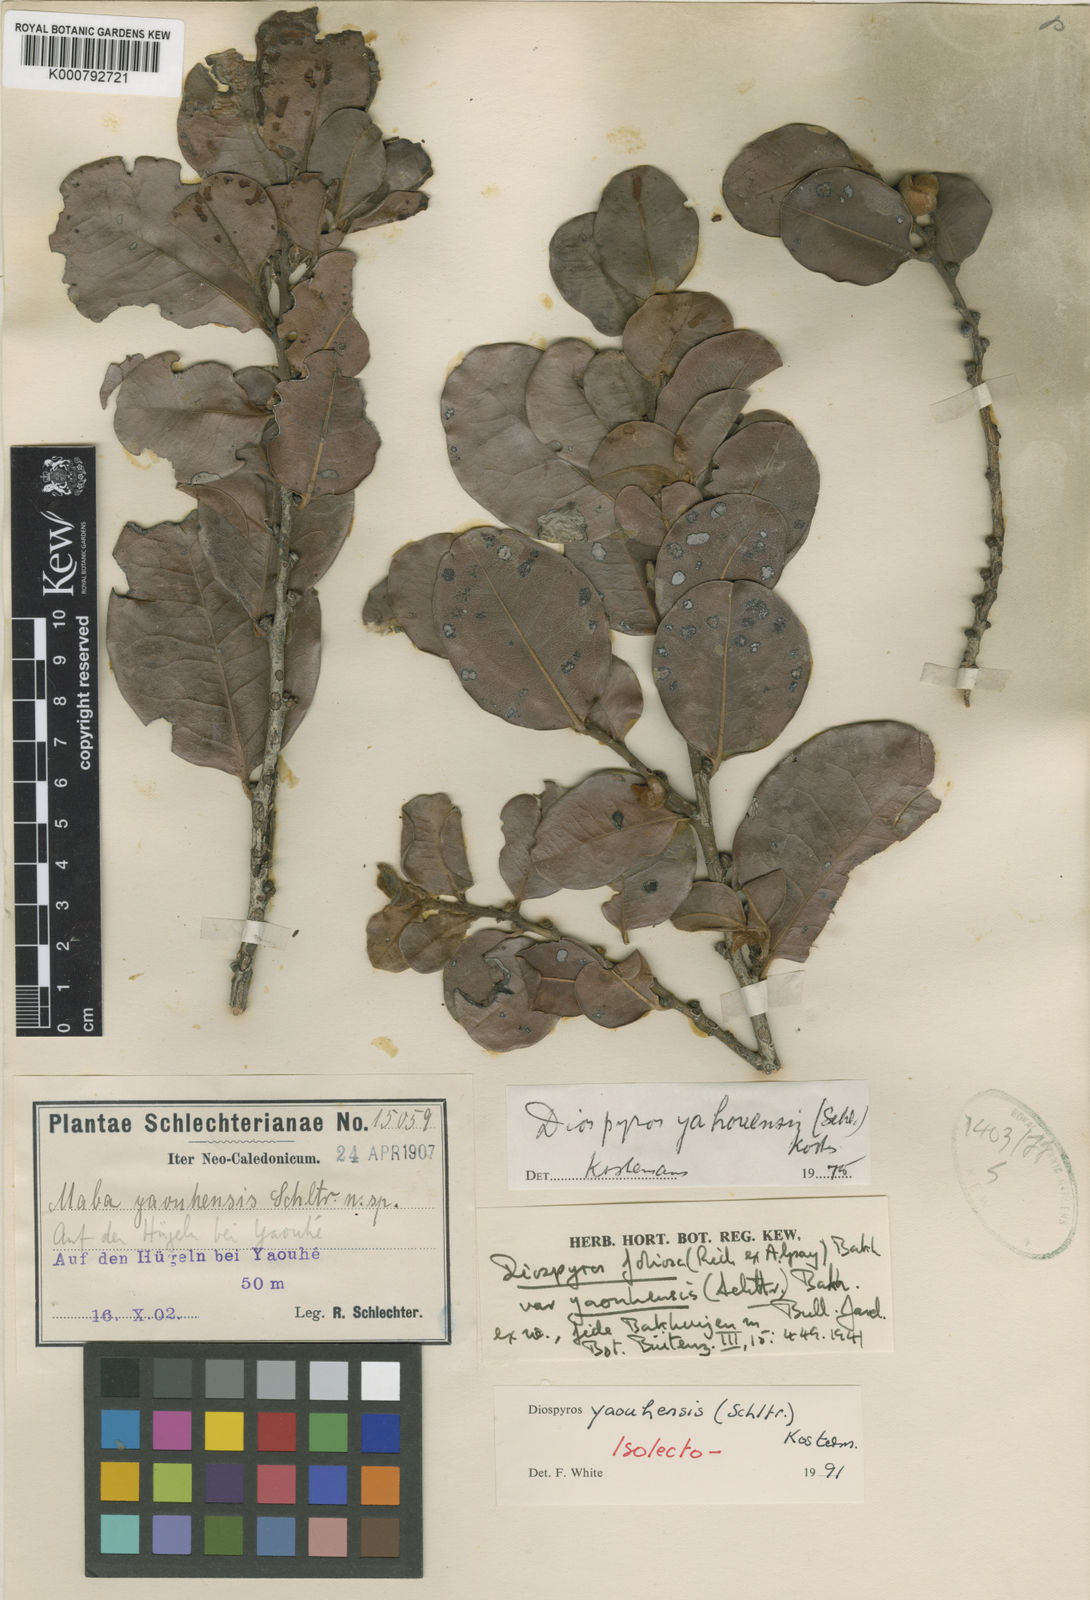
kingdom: Plantae
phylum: Tracheophyta
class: Magnoliopsida
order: Ericales
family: Ebenaceae
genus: Diospyros
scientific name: Diospyros yaouhensis
